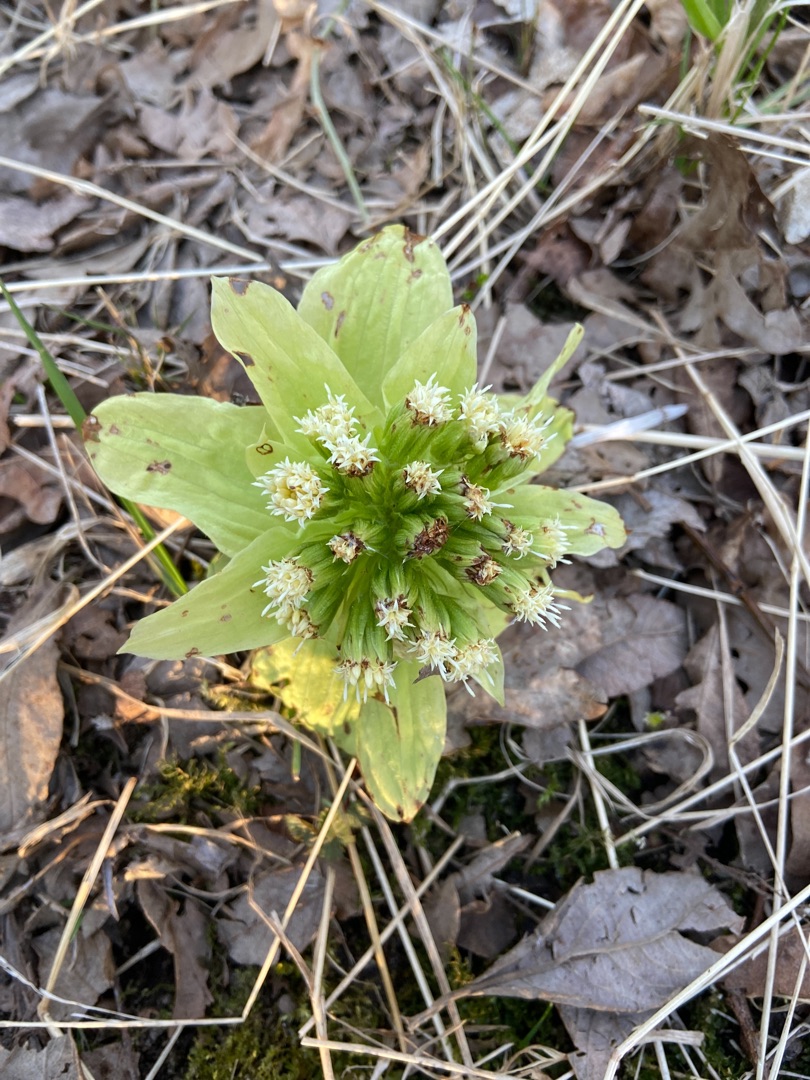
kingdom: Plantae
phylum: Tracheophyta
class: Magnoliopsida
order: Asterales
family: Asteraceae
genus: Petasites
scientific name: Petasites japonicus
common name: Japansk hestehov
